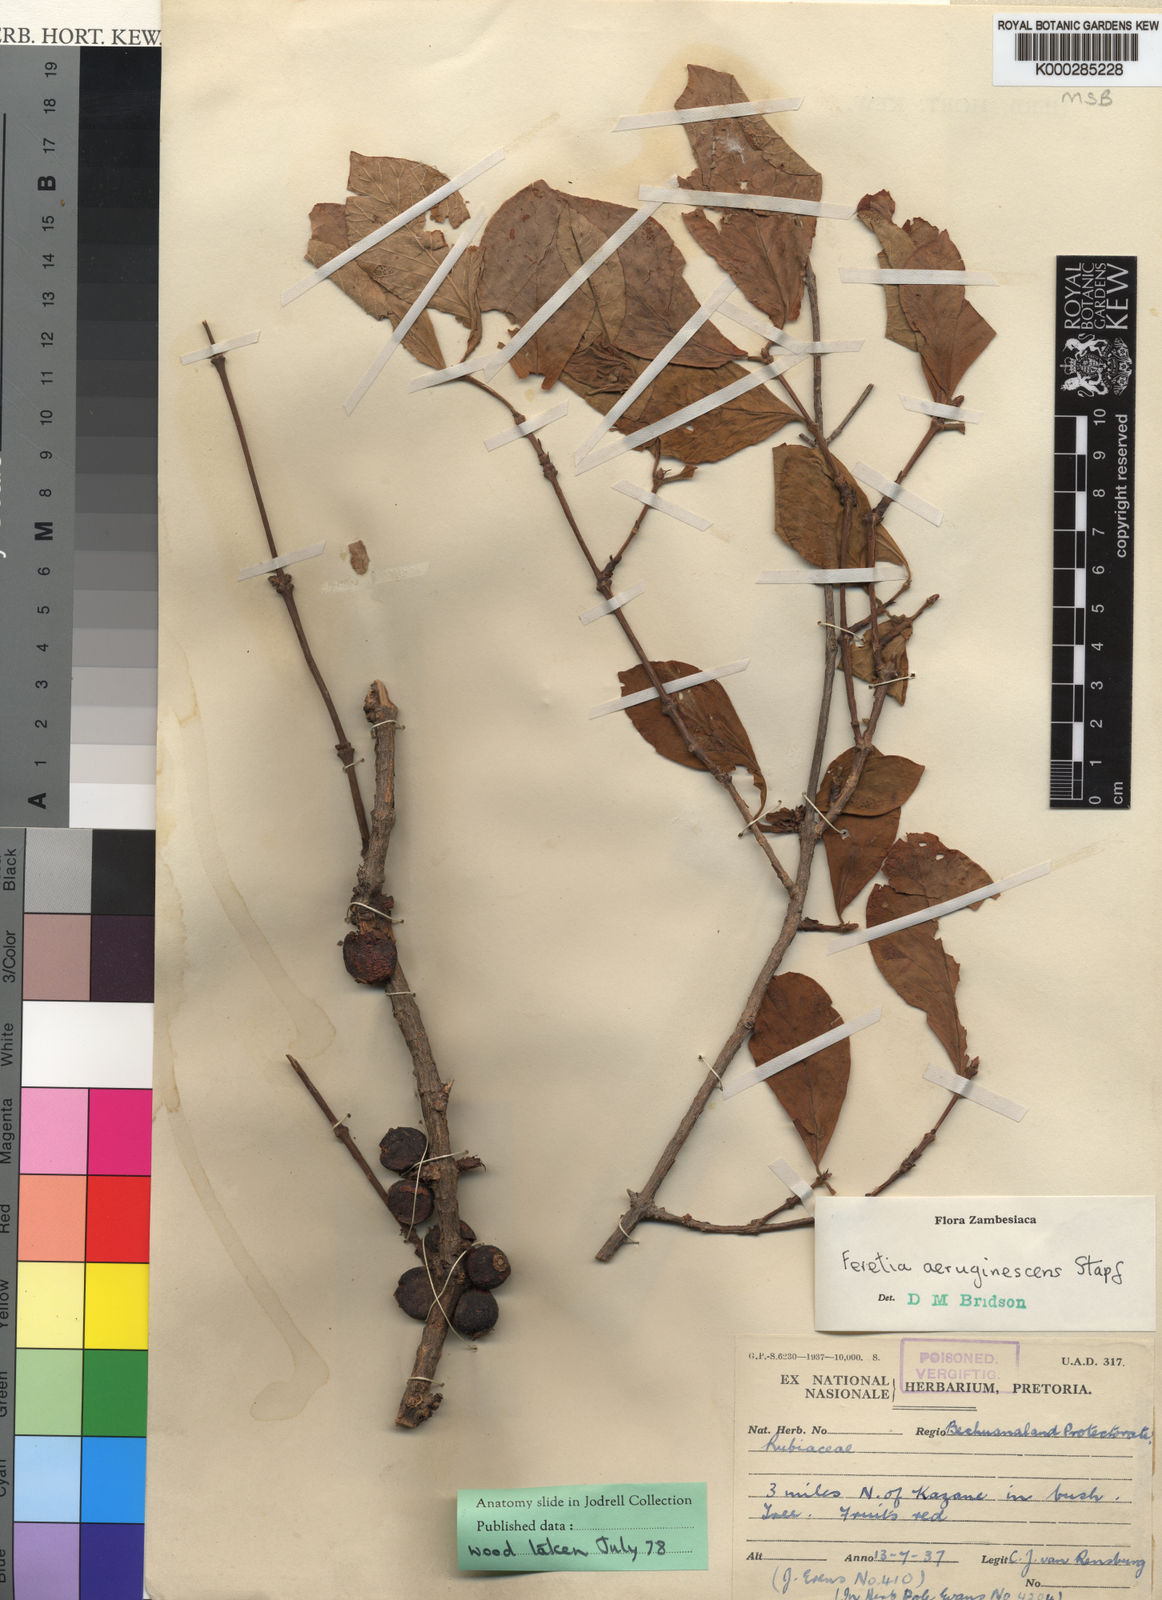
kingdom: Plantae
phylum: Tracheophyta
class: Magnoliopsida
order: Gentianales
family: Rubiaceae
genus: Feretia
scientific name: Feretia aeruginescens
